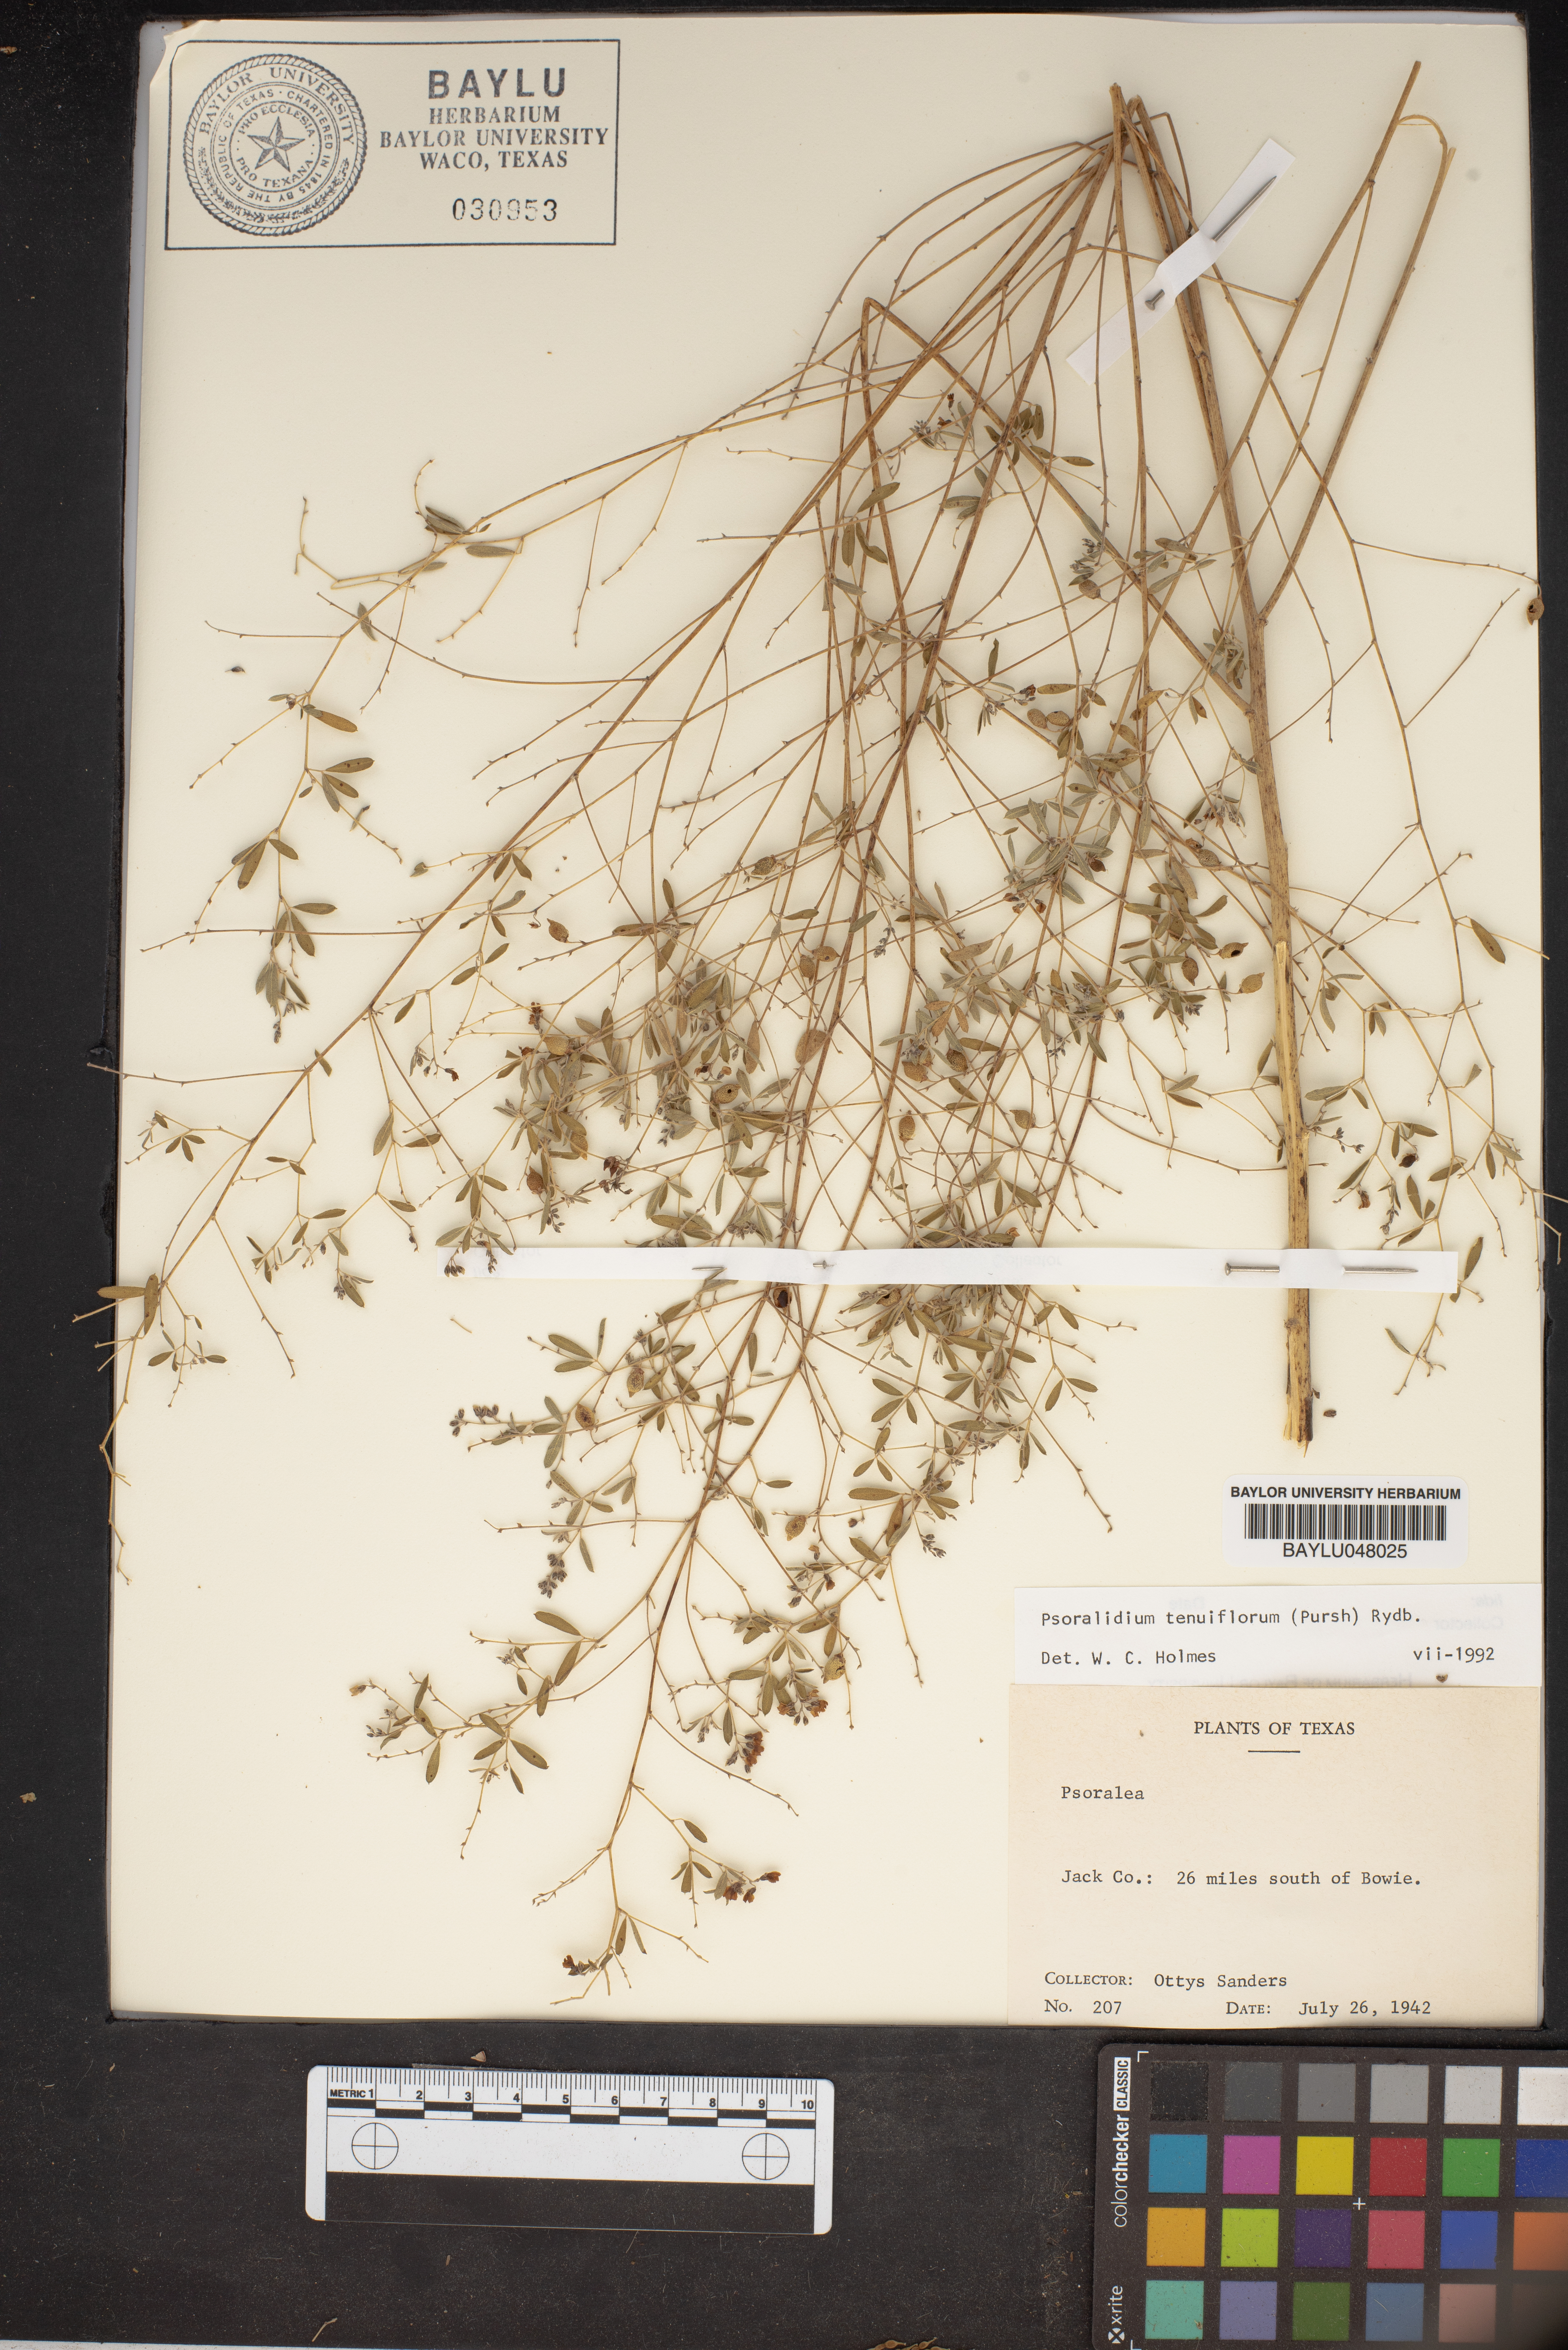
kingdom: Plantae
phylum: Tracheophyta
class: Magnoliopsida
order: Fabales
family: Fabaceae
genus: Pediomelum
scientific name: Pediomelum tenuiflorum
